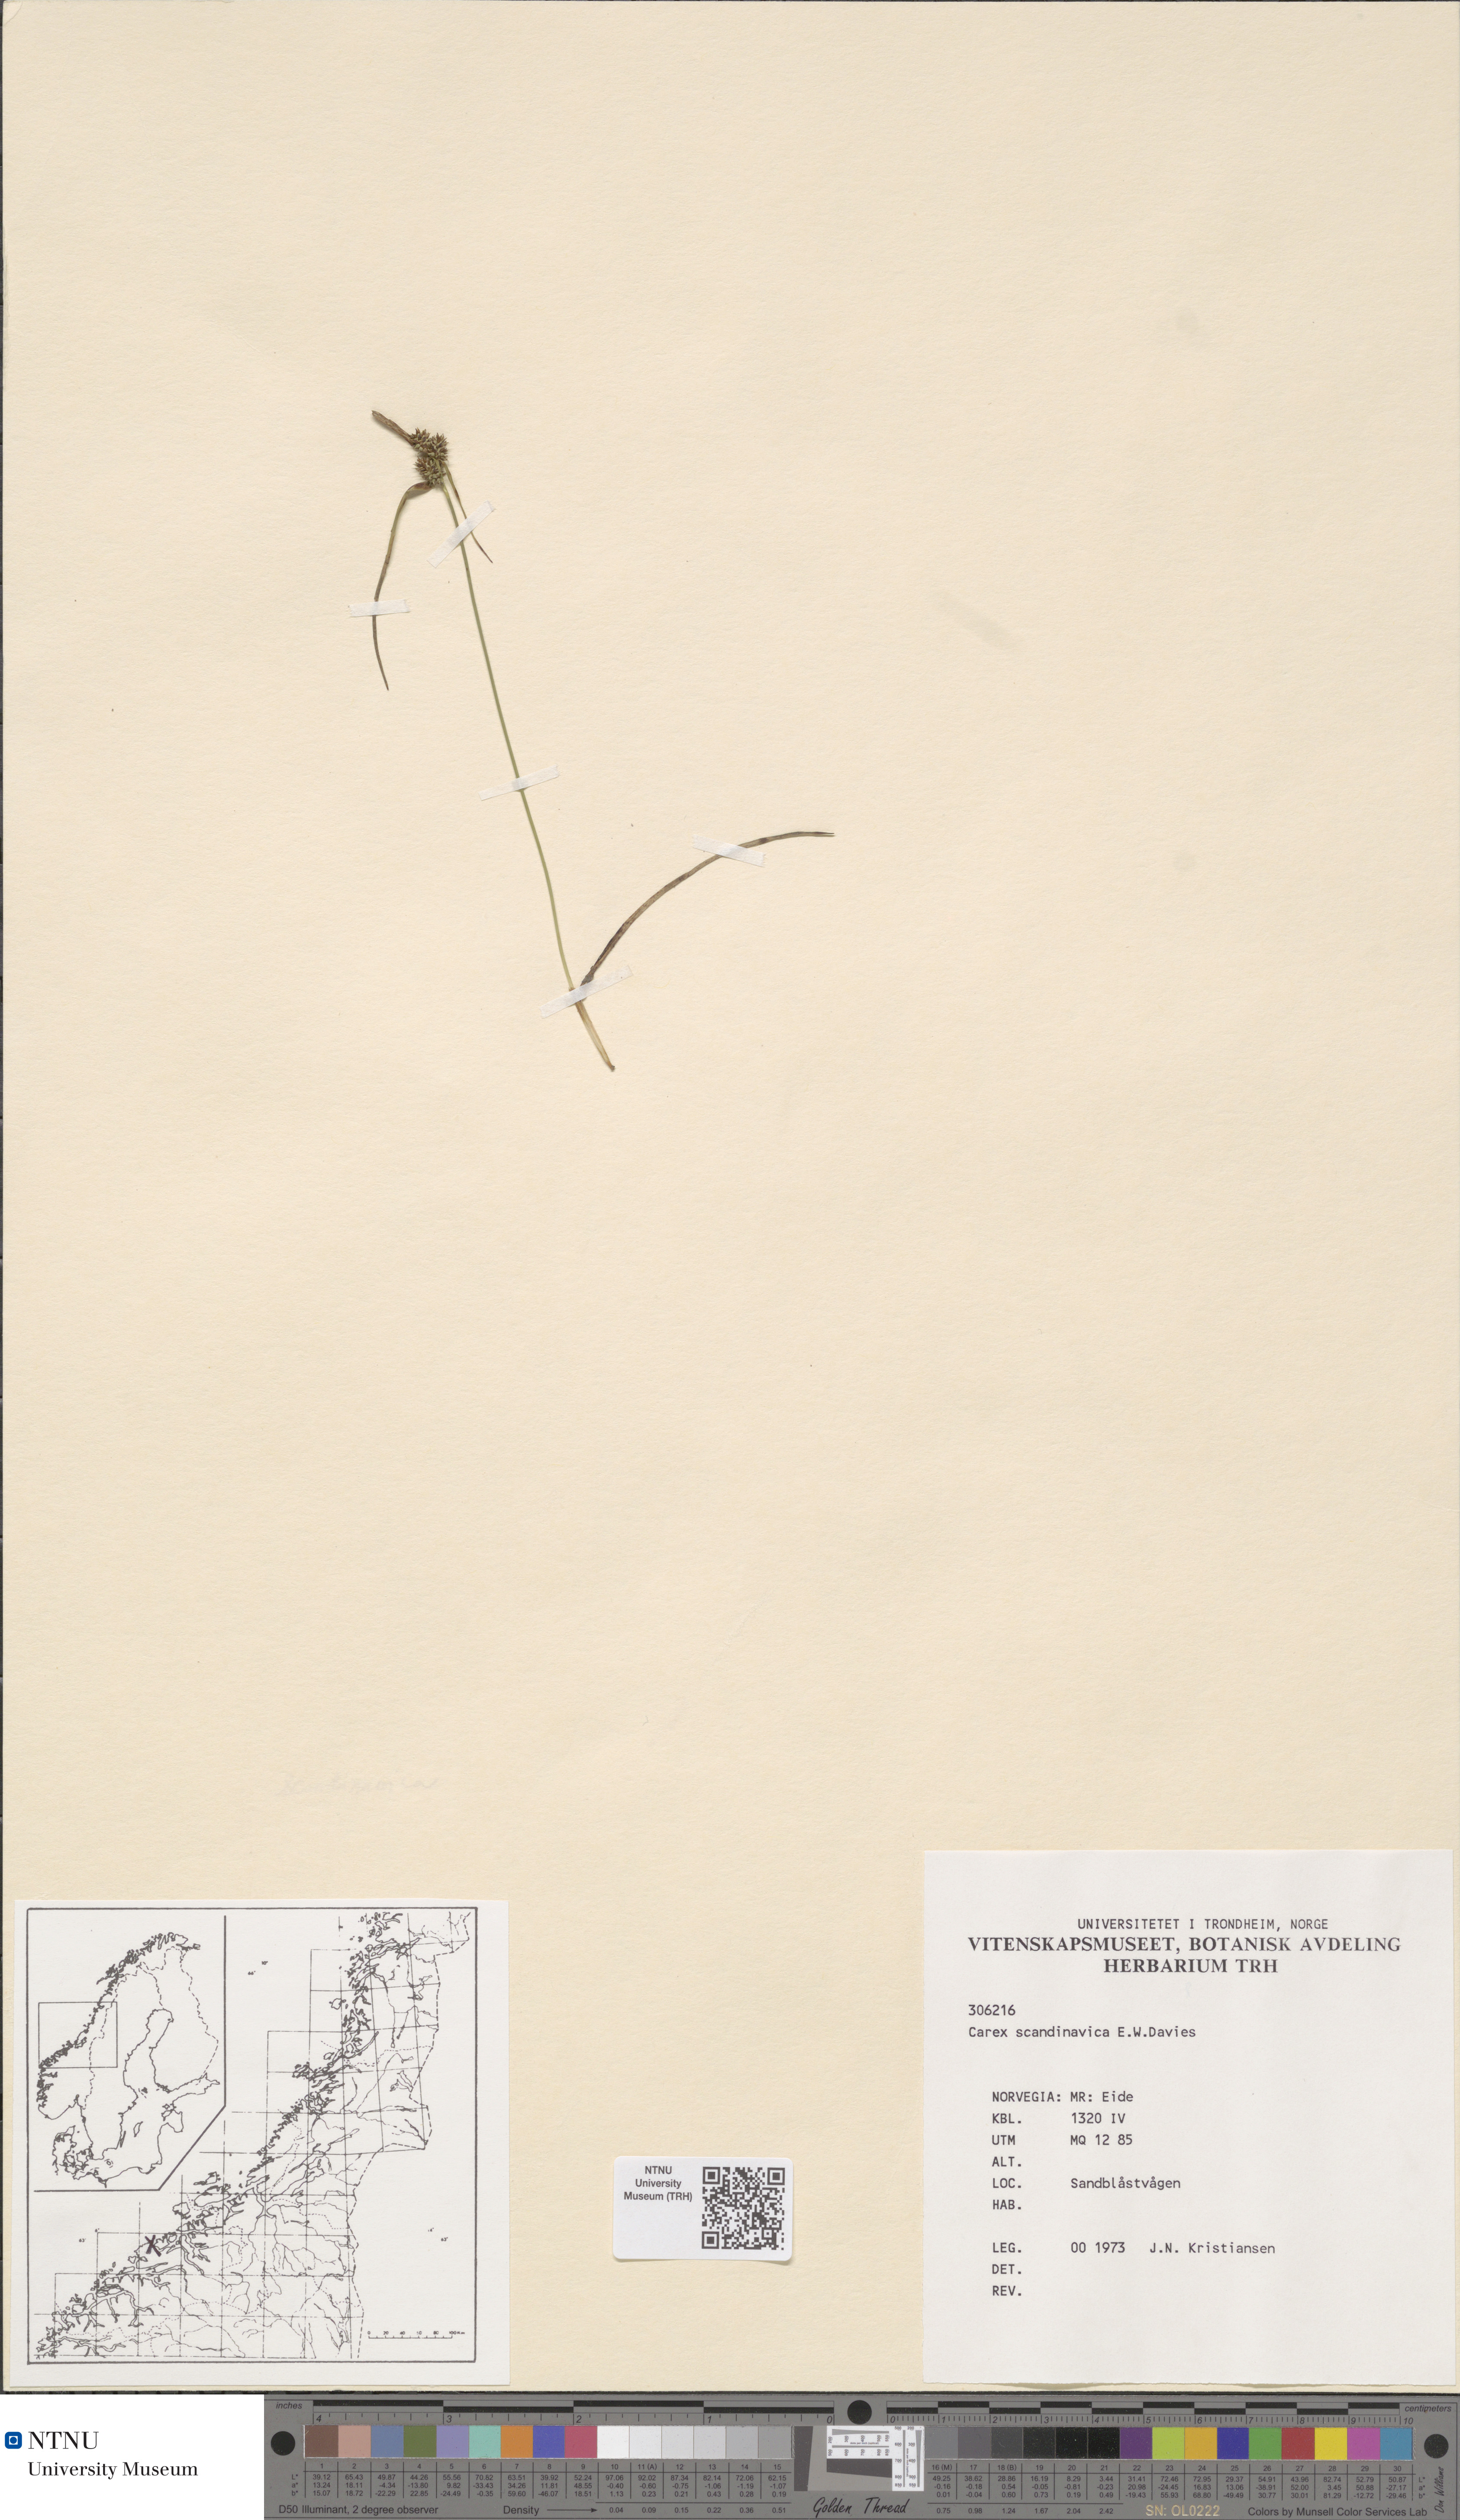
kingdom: Plantae
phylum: Tracheophyta
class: Liliopsida
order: Poales
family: Cyperaceae
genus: Carex
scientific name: Carex oederi
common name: Common & small-fruited yellow-sedge
